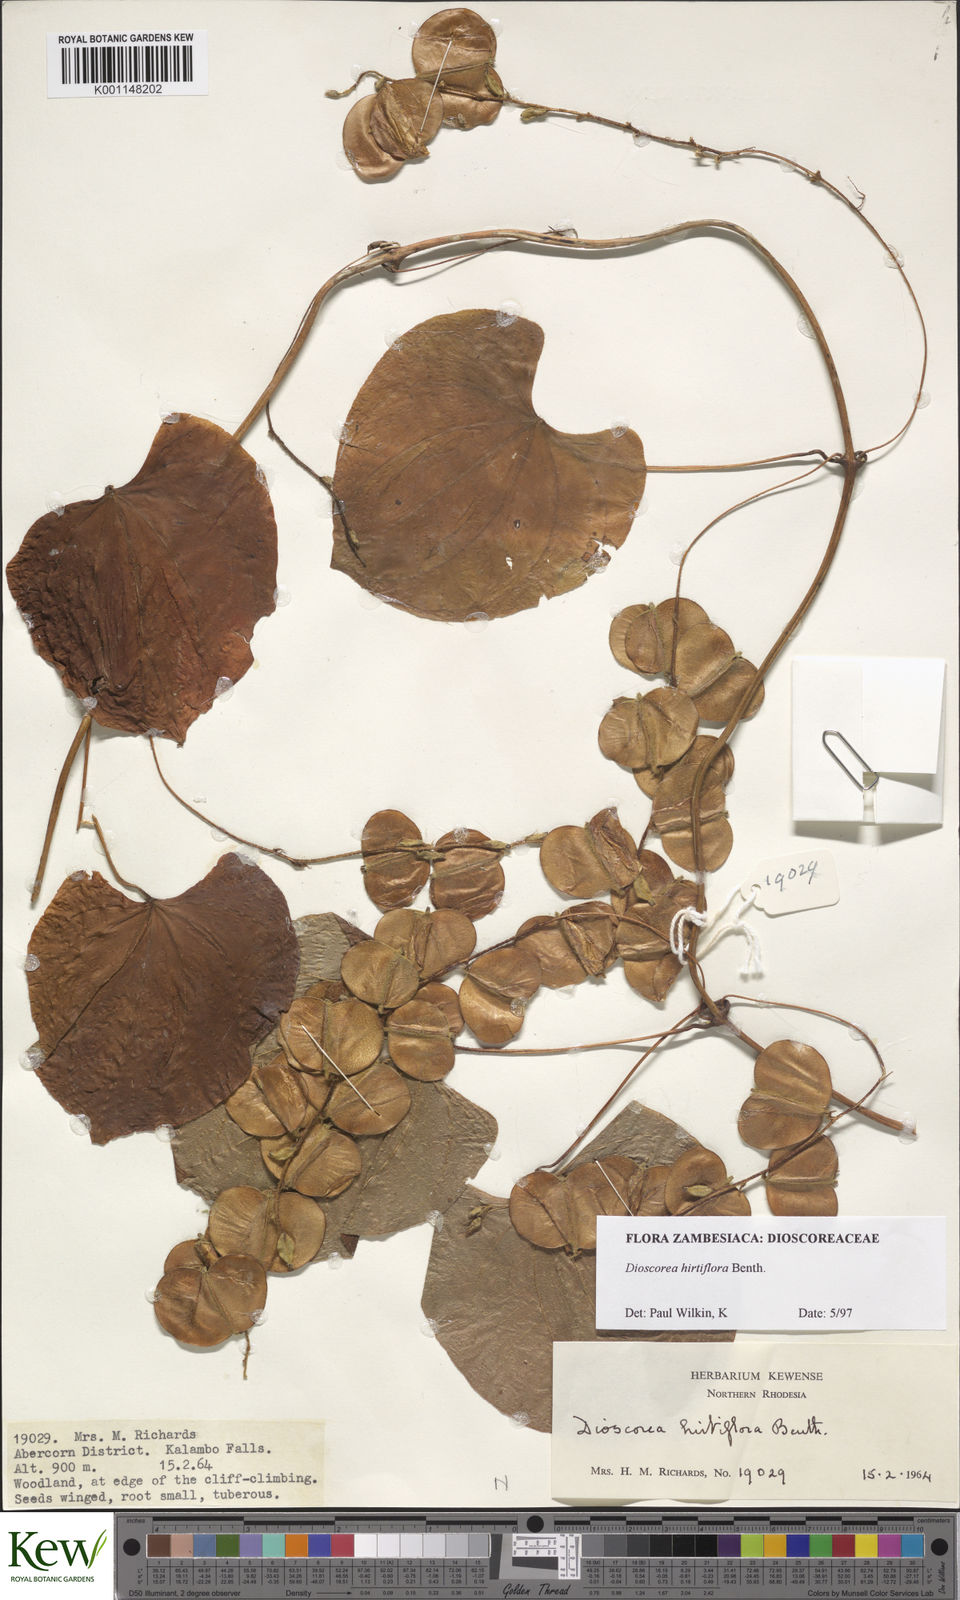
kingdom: Plantae
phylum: Tracheophyta
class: Liliopsida
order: Dioscoreales
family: Dioscoreaceae
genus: Dioscorea
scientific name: Dioscorea hirtiflora
